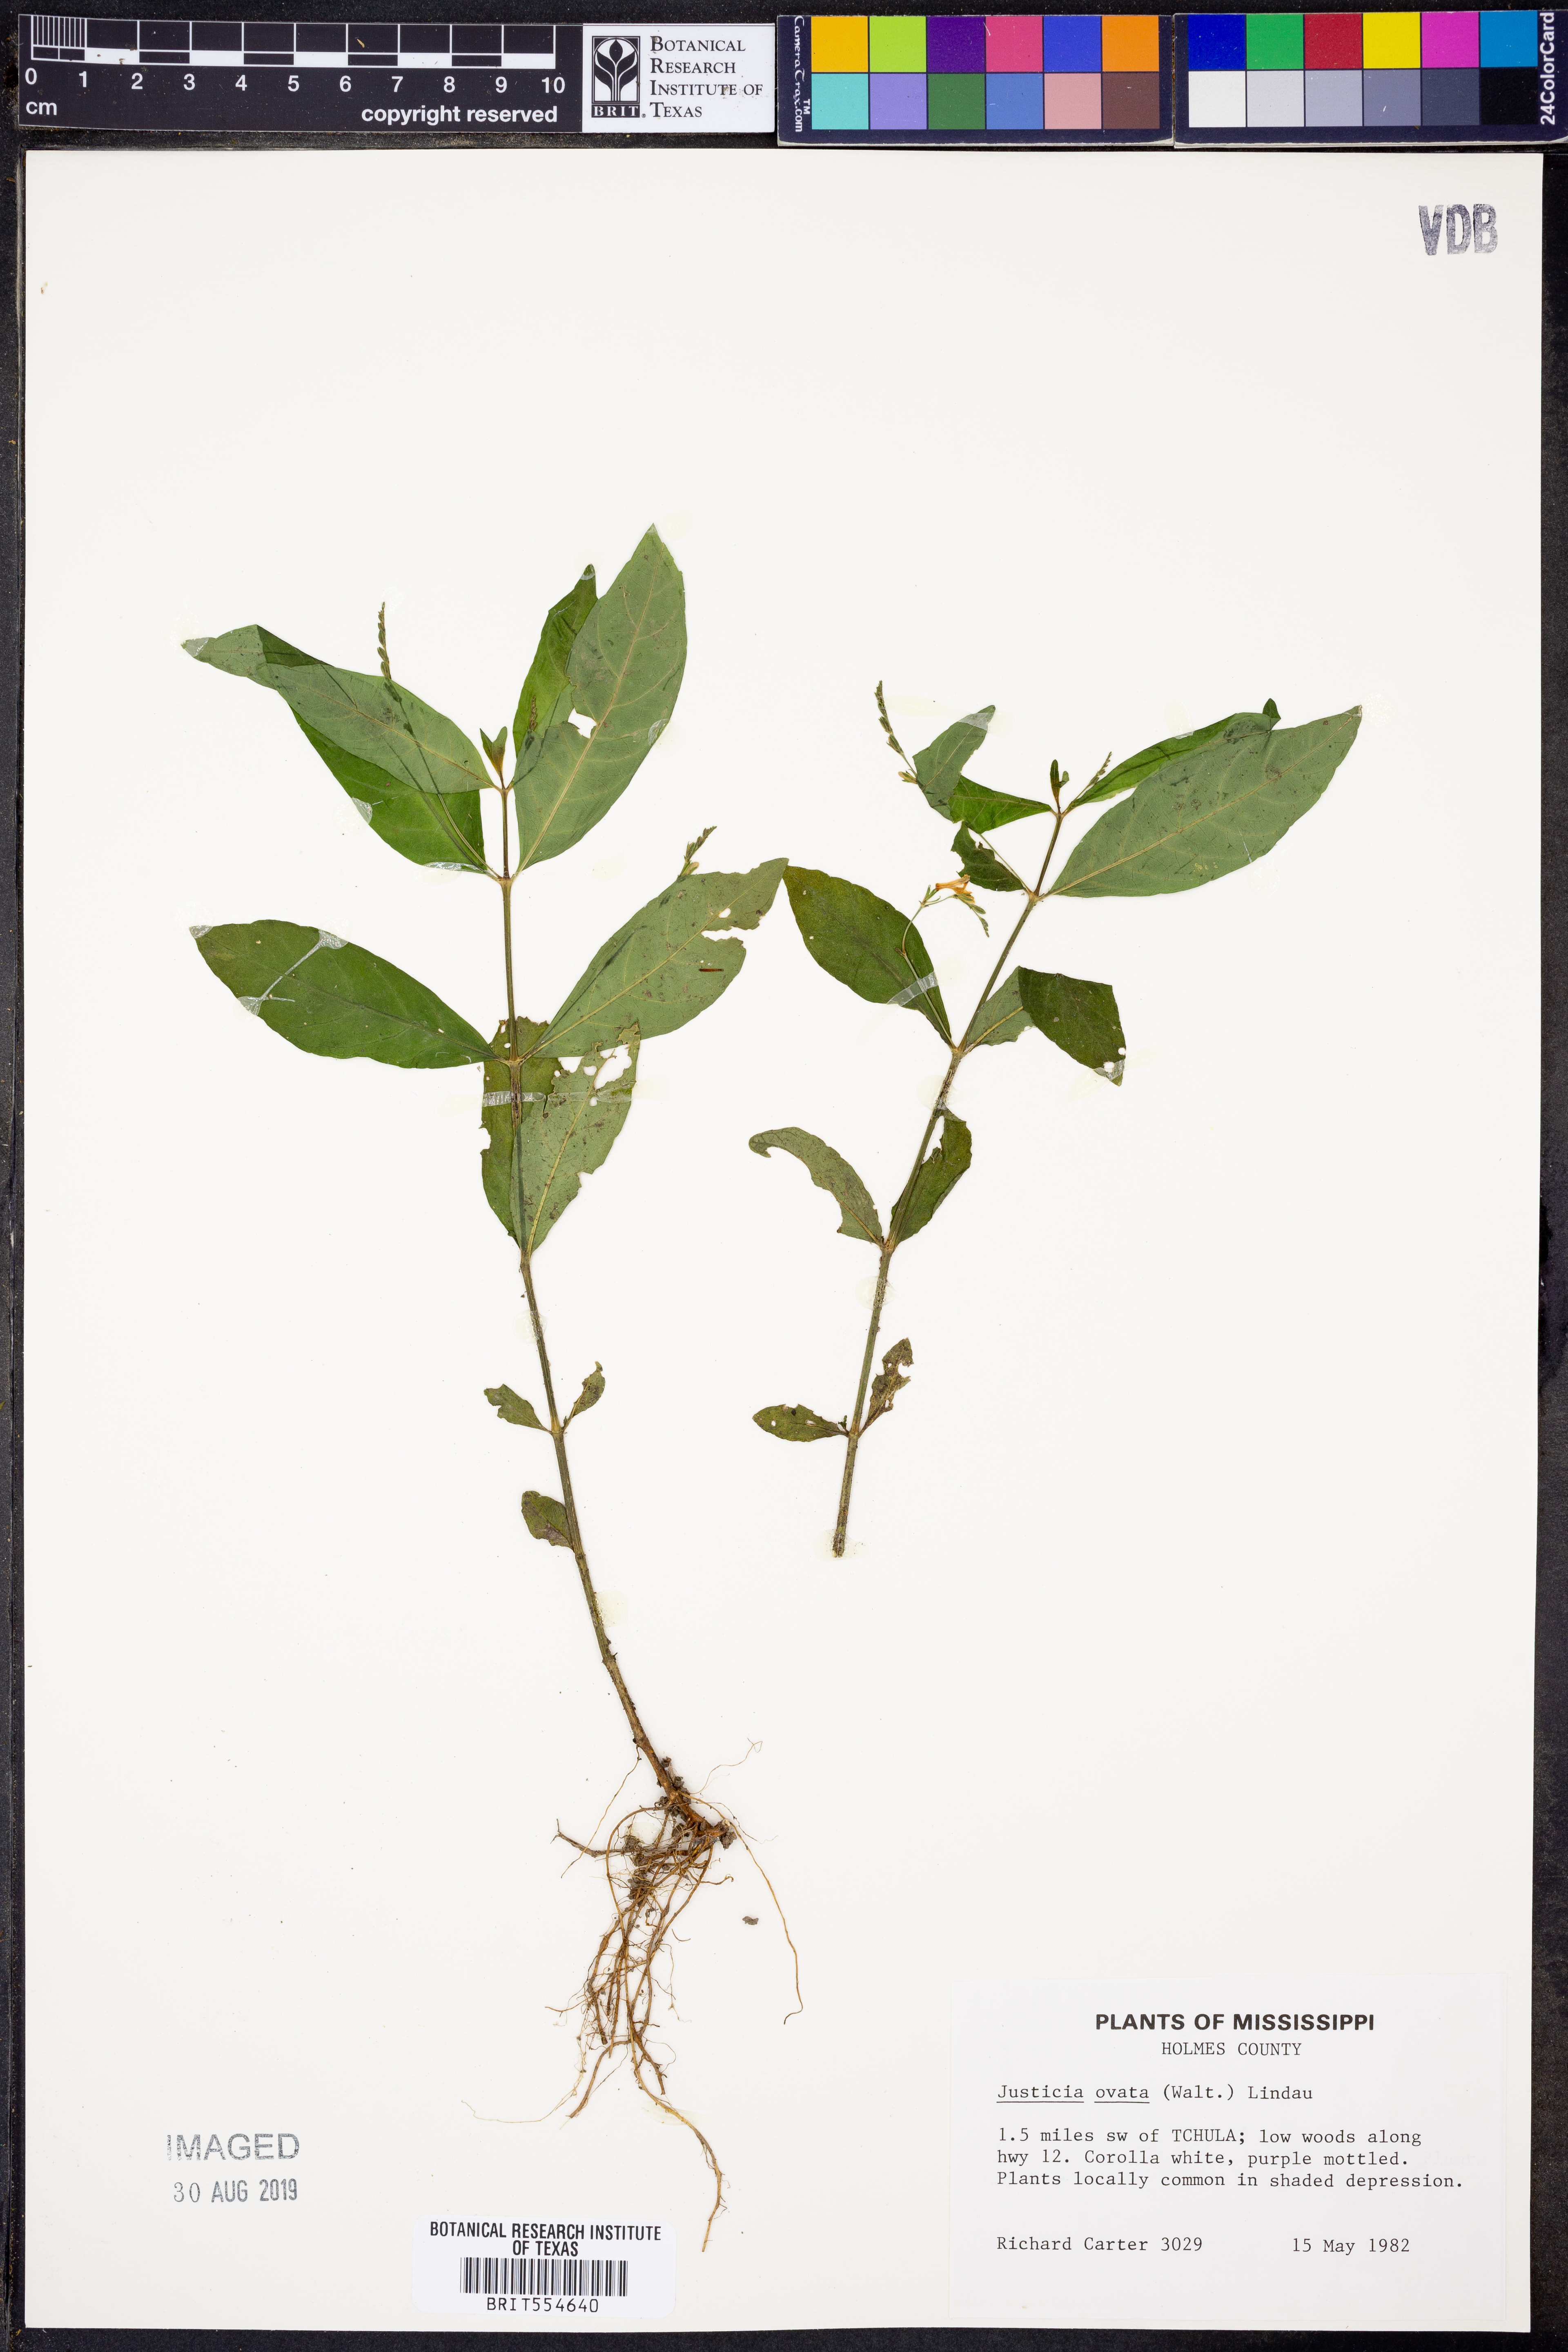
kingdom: Plantae
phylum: Tracheophyta
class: Magnoliopsida
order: Lamiales
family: Acanthaceae
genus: Dianthera
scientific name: Dianthera ovata
